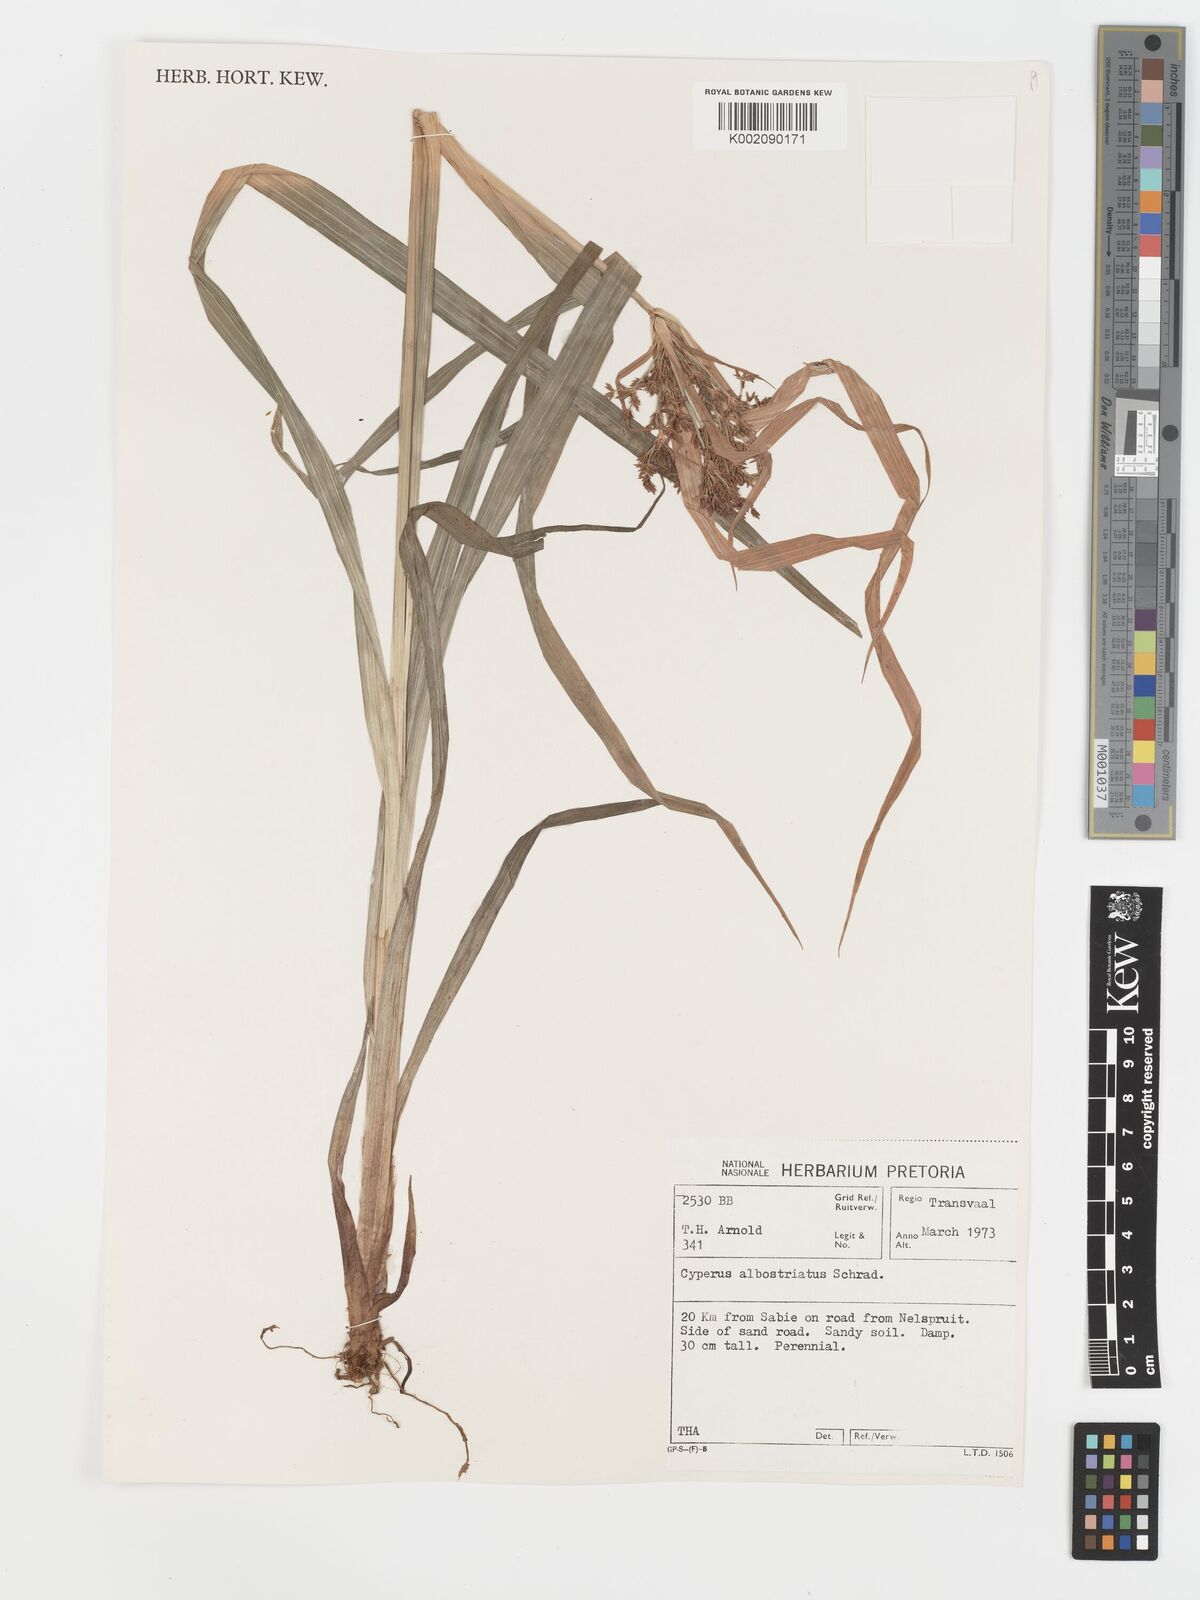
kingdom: Plantae
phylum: Tracheophyta
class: Liliopsida
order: Poales
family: Cyperaceae
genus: Cyperus
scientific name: Cyperus albostriatus
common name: Dwarf umbrella-grass
